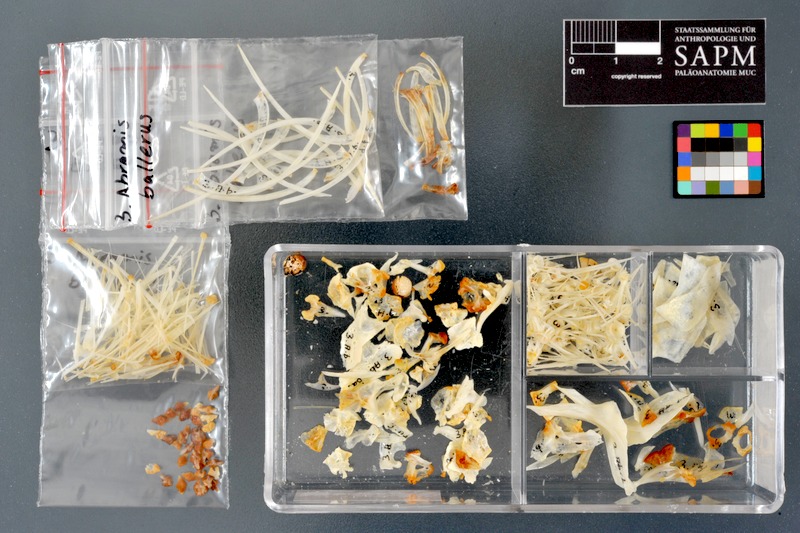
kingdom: Animalia
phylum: Chordata
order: Cypriniformes
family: Cyprinidae
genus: Ballerus
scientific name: Ballerus ballerus
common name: Blue bream
